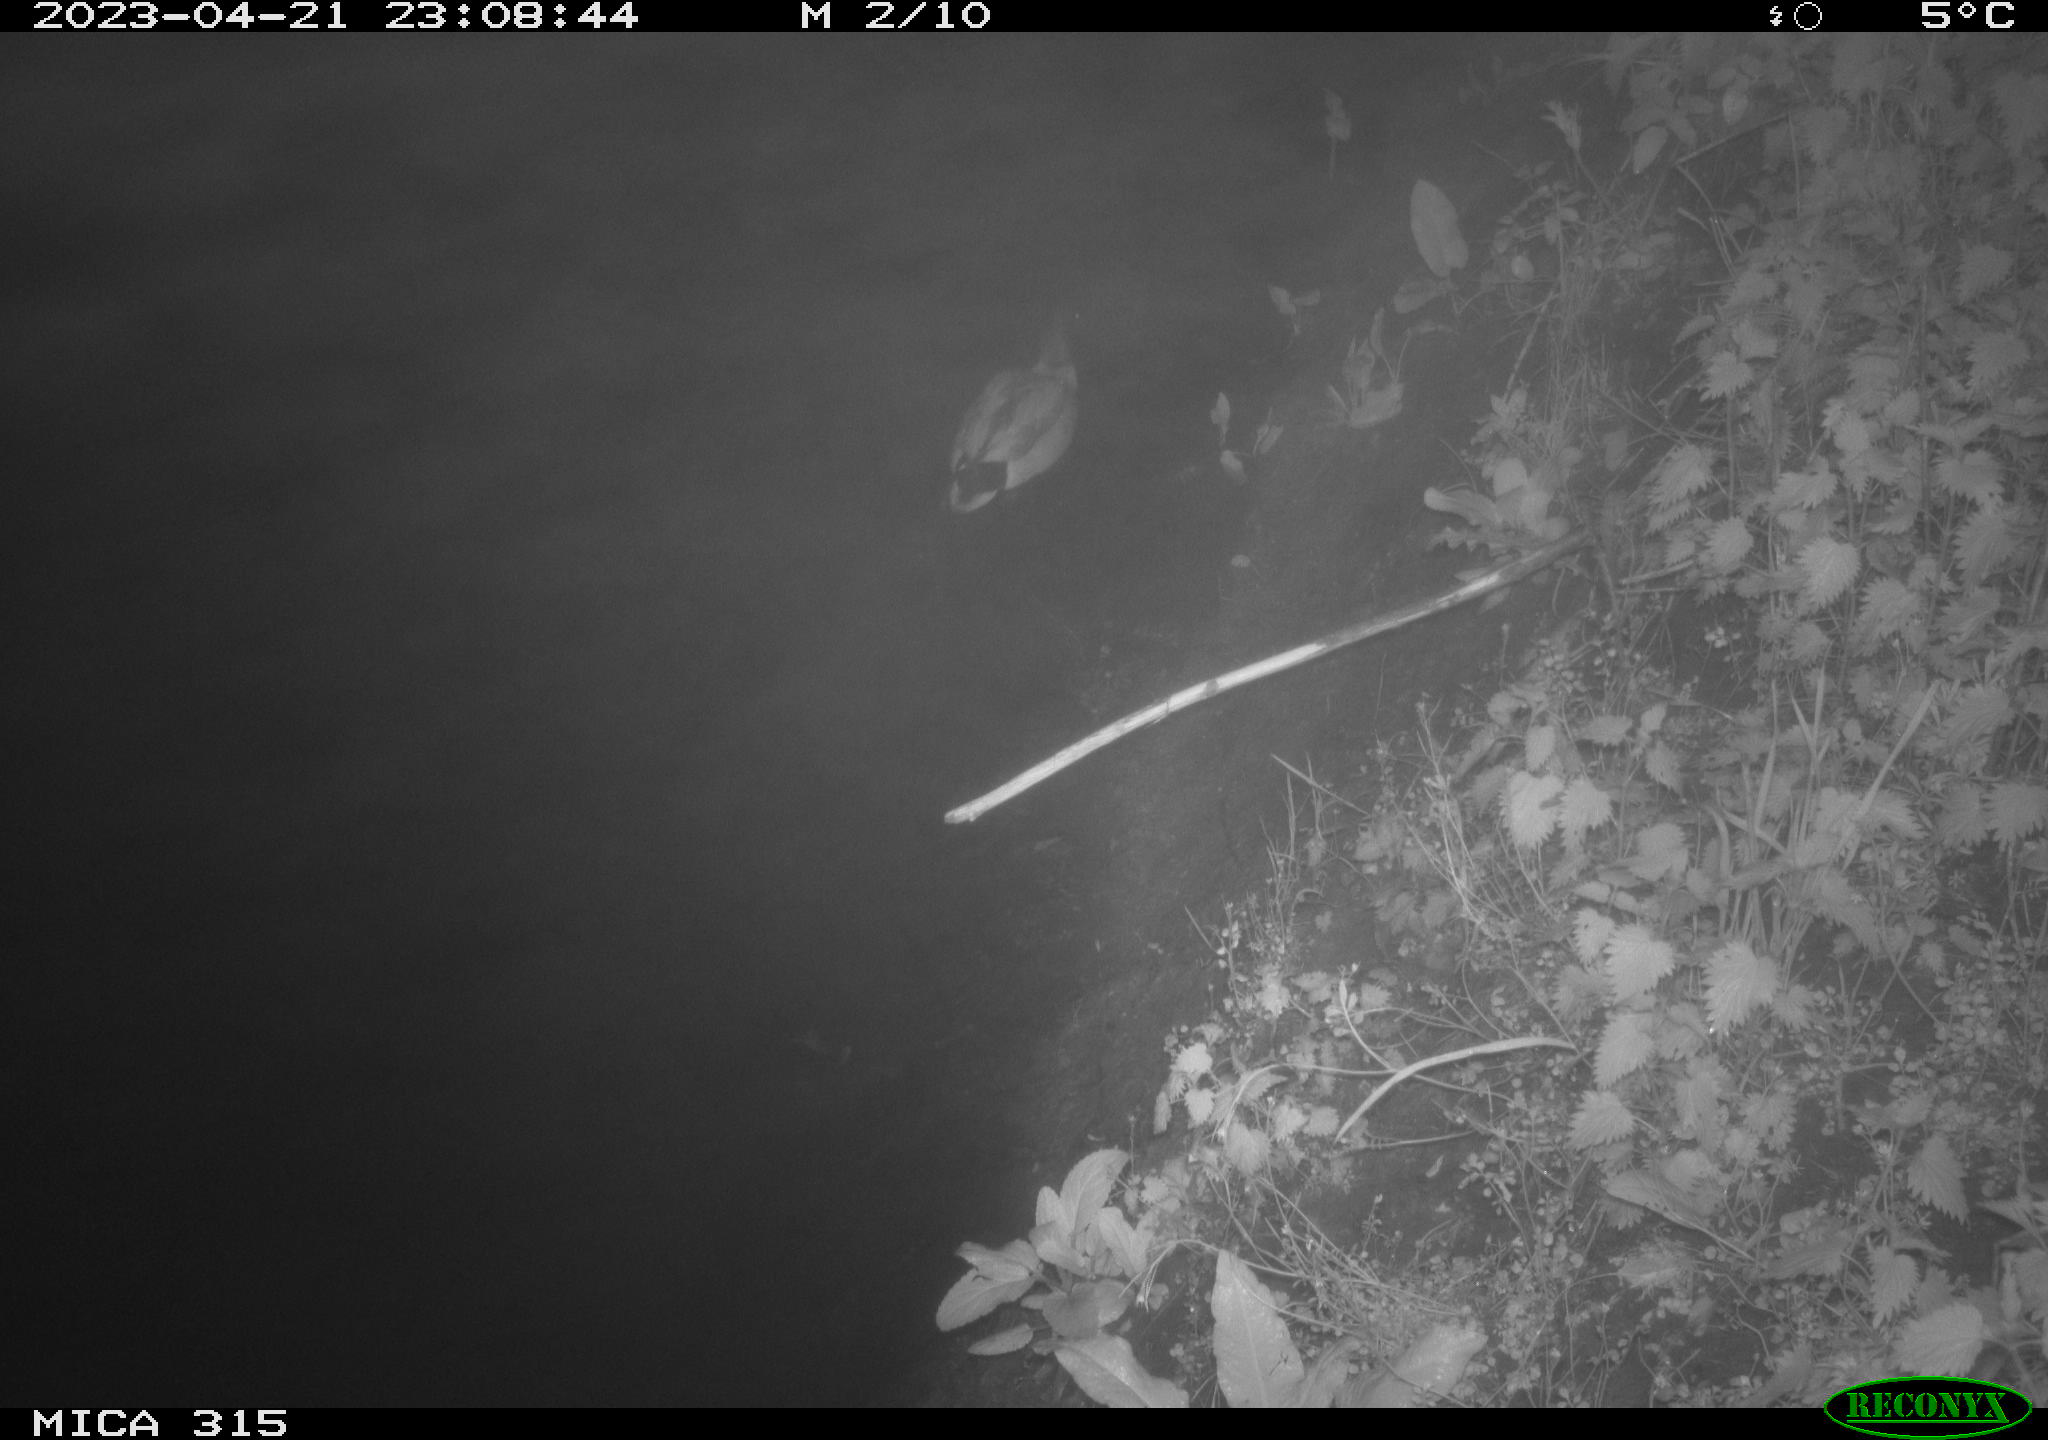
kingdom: Animalia
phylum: Chordata
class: Aves
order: Anseriformes
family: Anatidae
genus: Anas
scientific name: Anas
